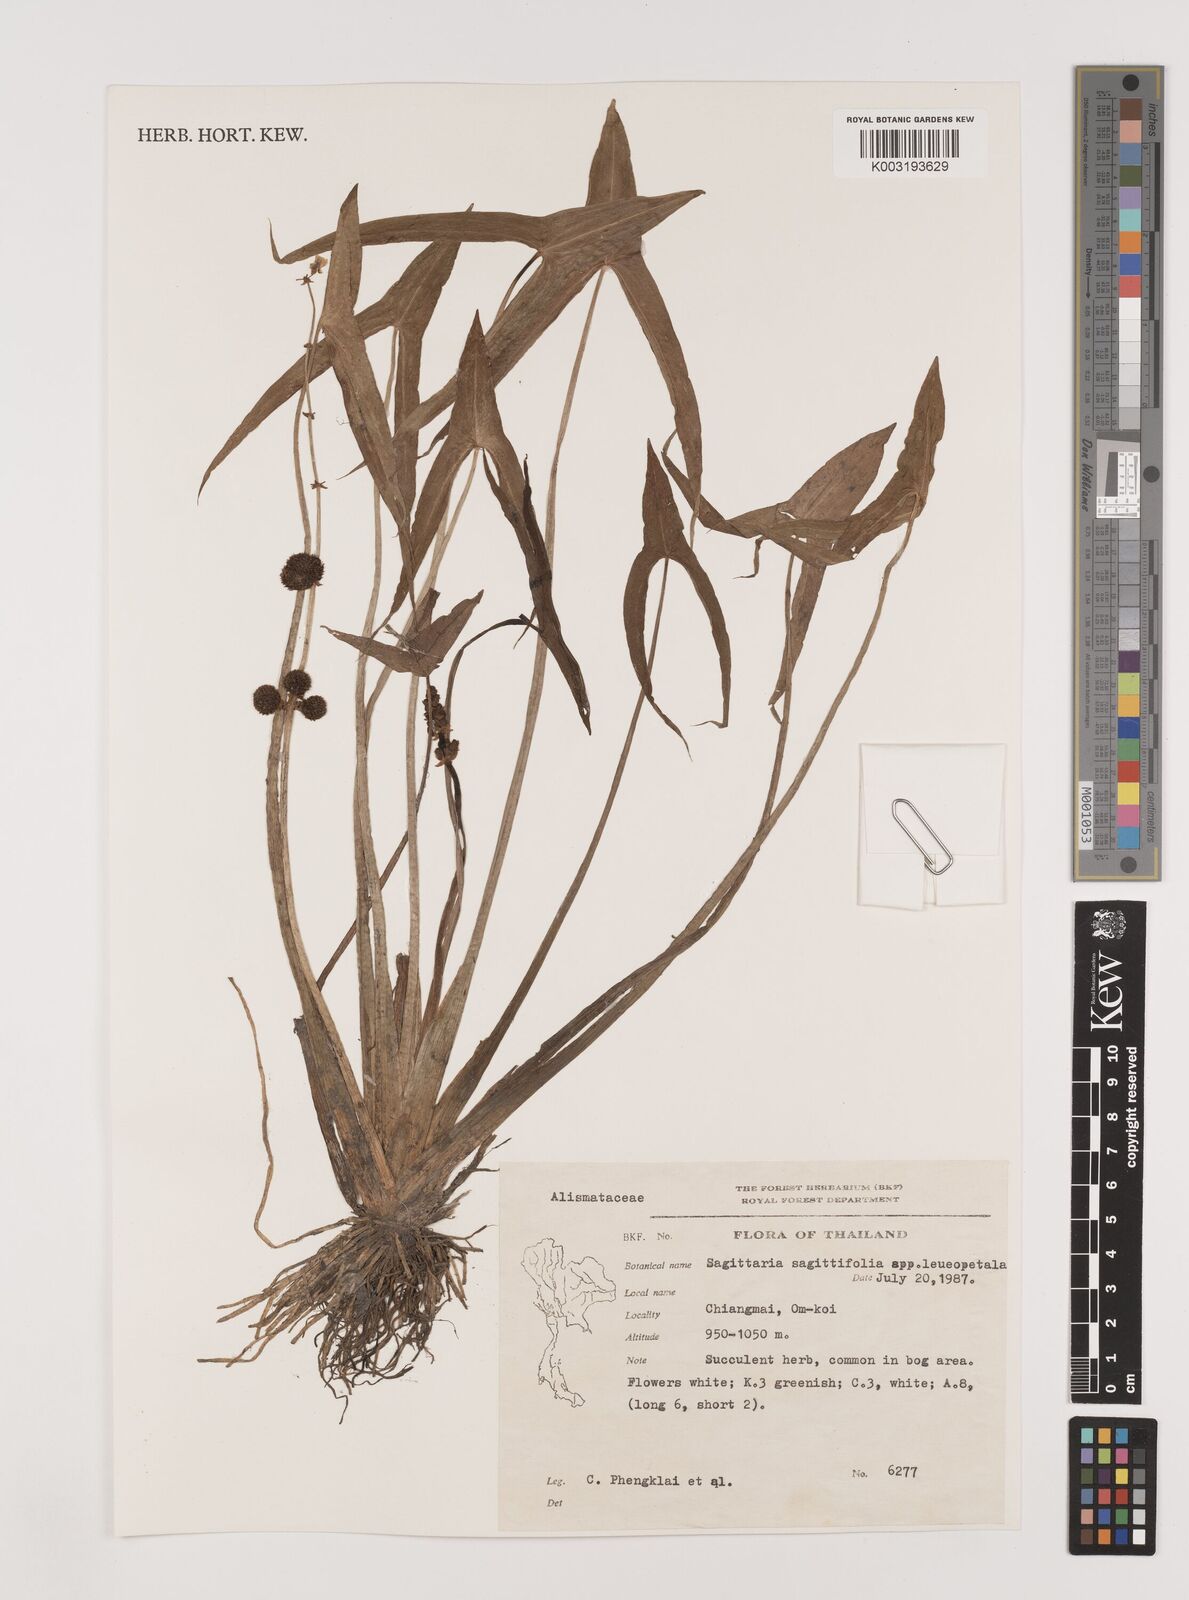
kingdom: Plantae
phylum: Tracheophyta
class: Liliopsida
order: Alismatales
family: Alismataceae
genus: Sagittaria
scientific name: Sagittaria trifolia
